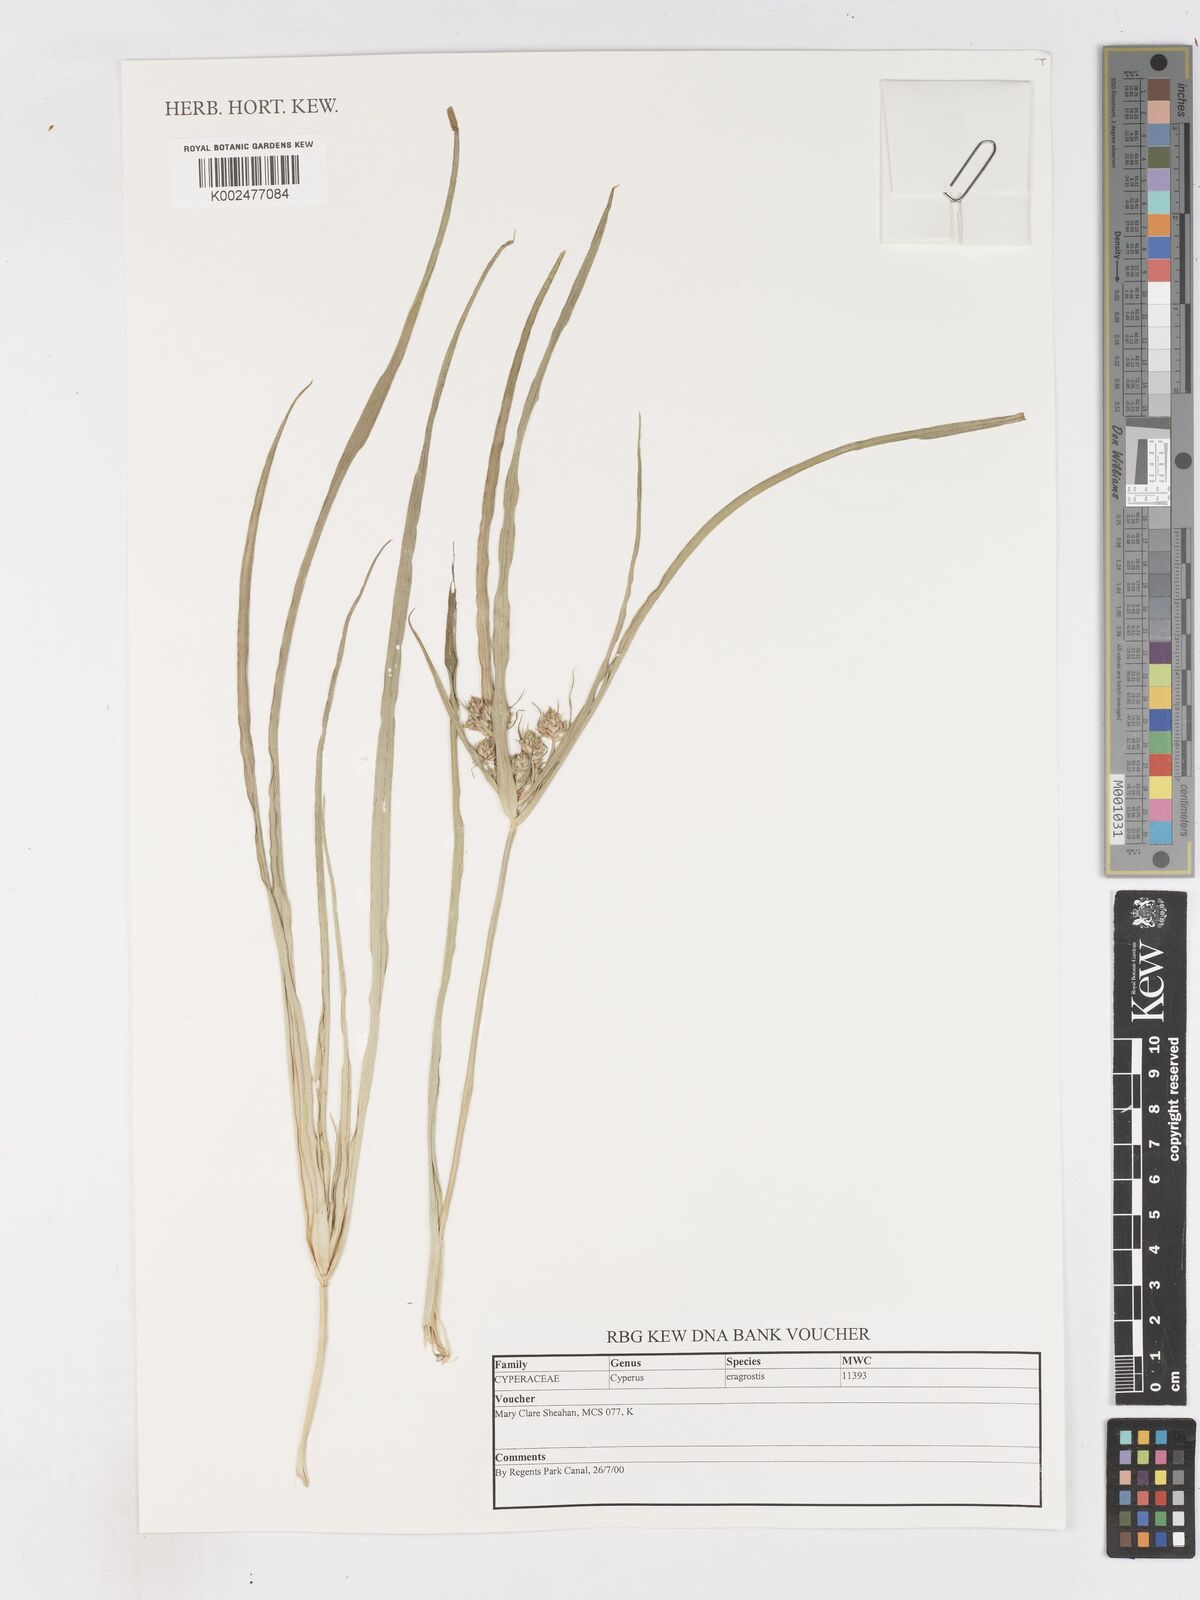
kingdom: Plantae
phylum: Tracheophyta
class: Liliopsida
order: Poales
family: Cyperaceae
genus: Cyperus
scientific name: Cyperus eragrostis
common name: Tall flatsedge
